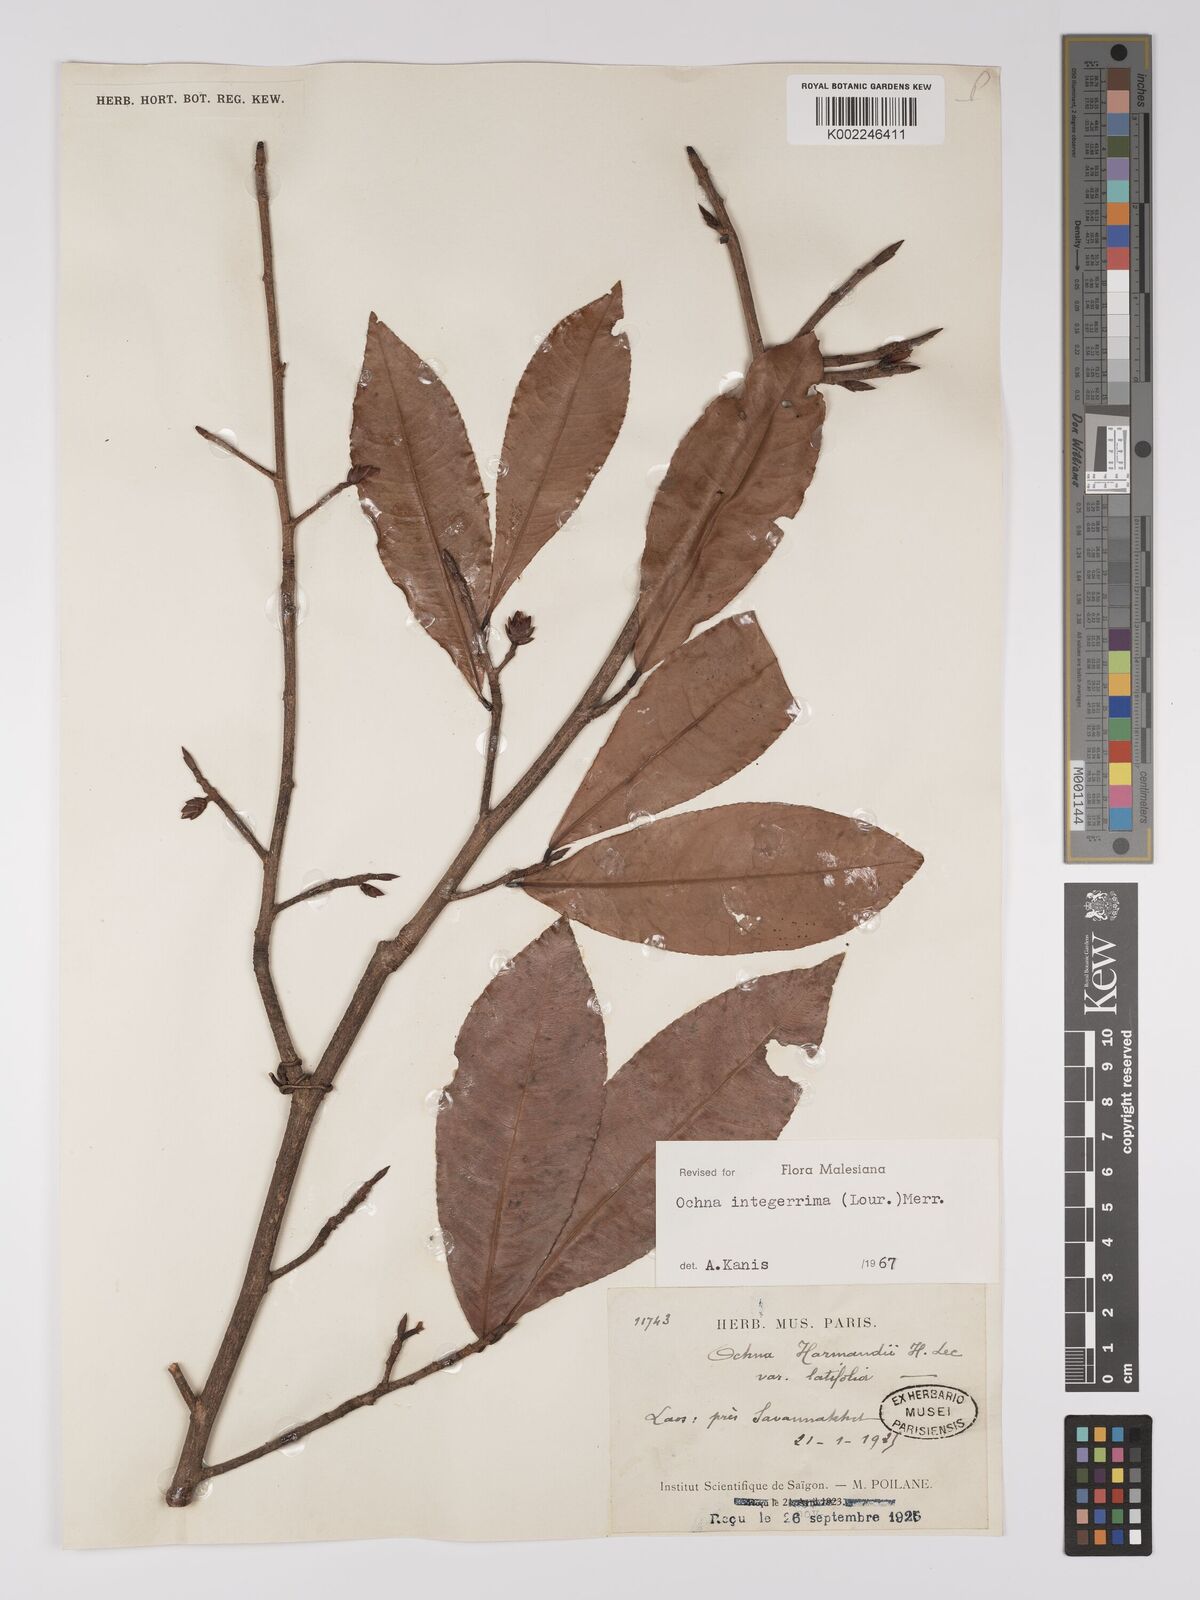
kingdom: Plantae
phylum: Tracheophyta
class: Magnoliopsida
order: Malpighiales
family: Ochnaceae
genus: Ochna
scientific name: Ochna integerrima
